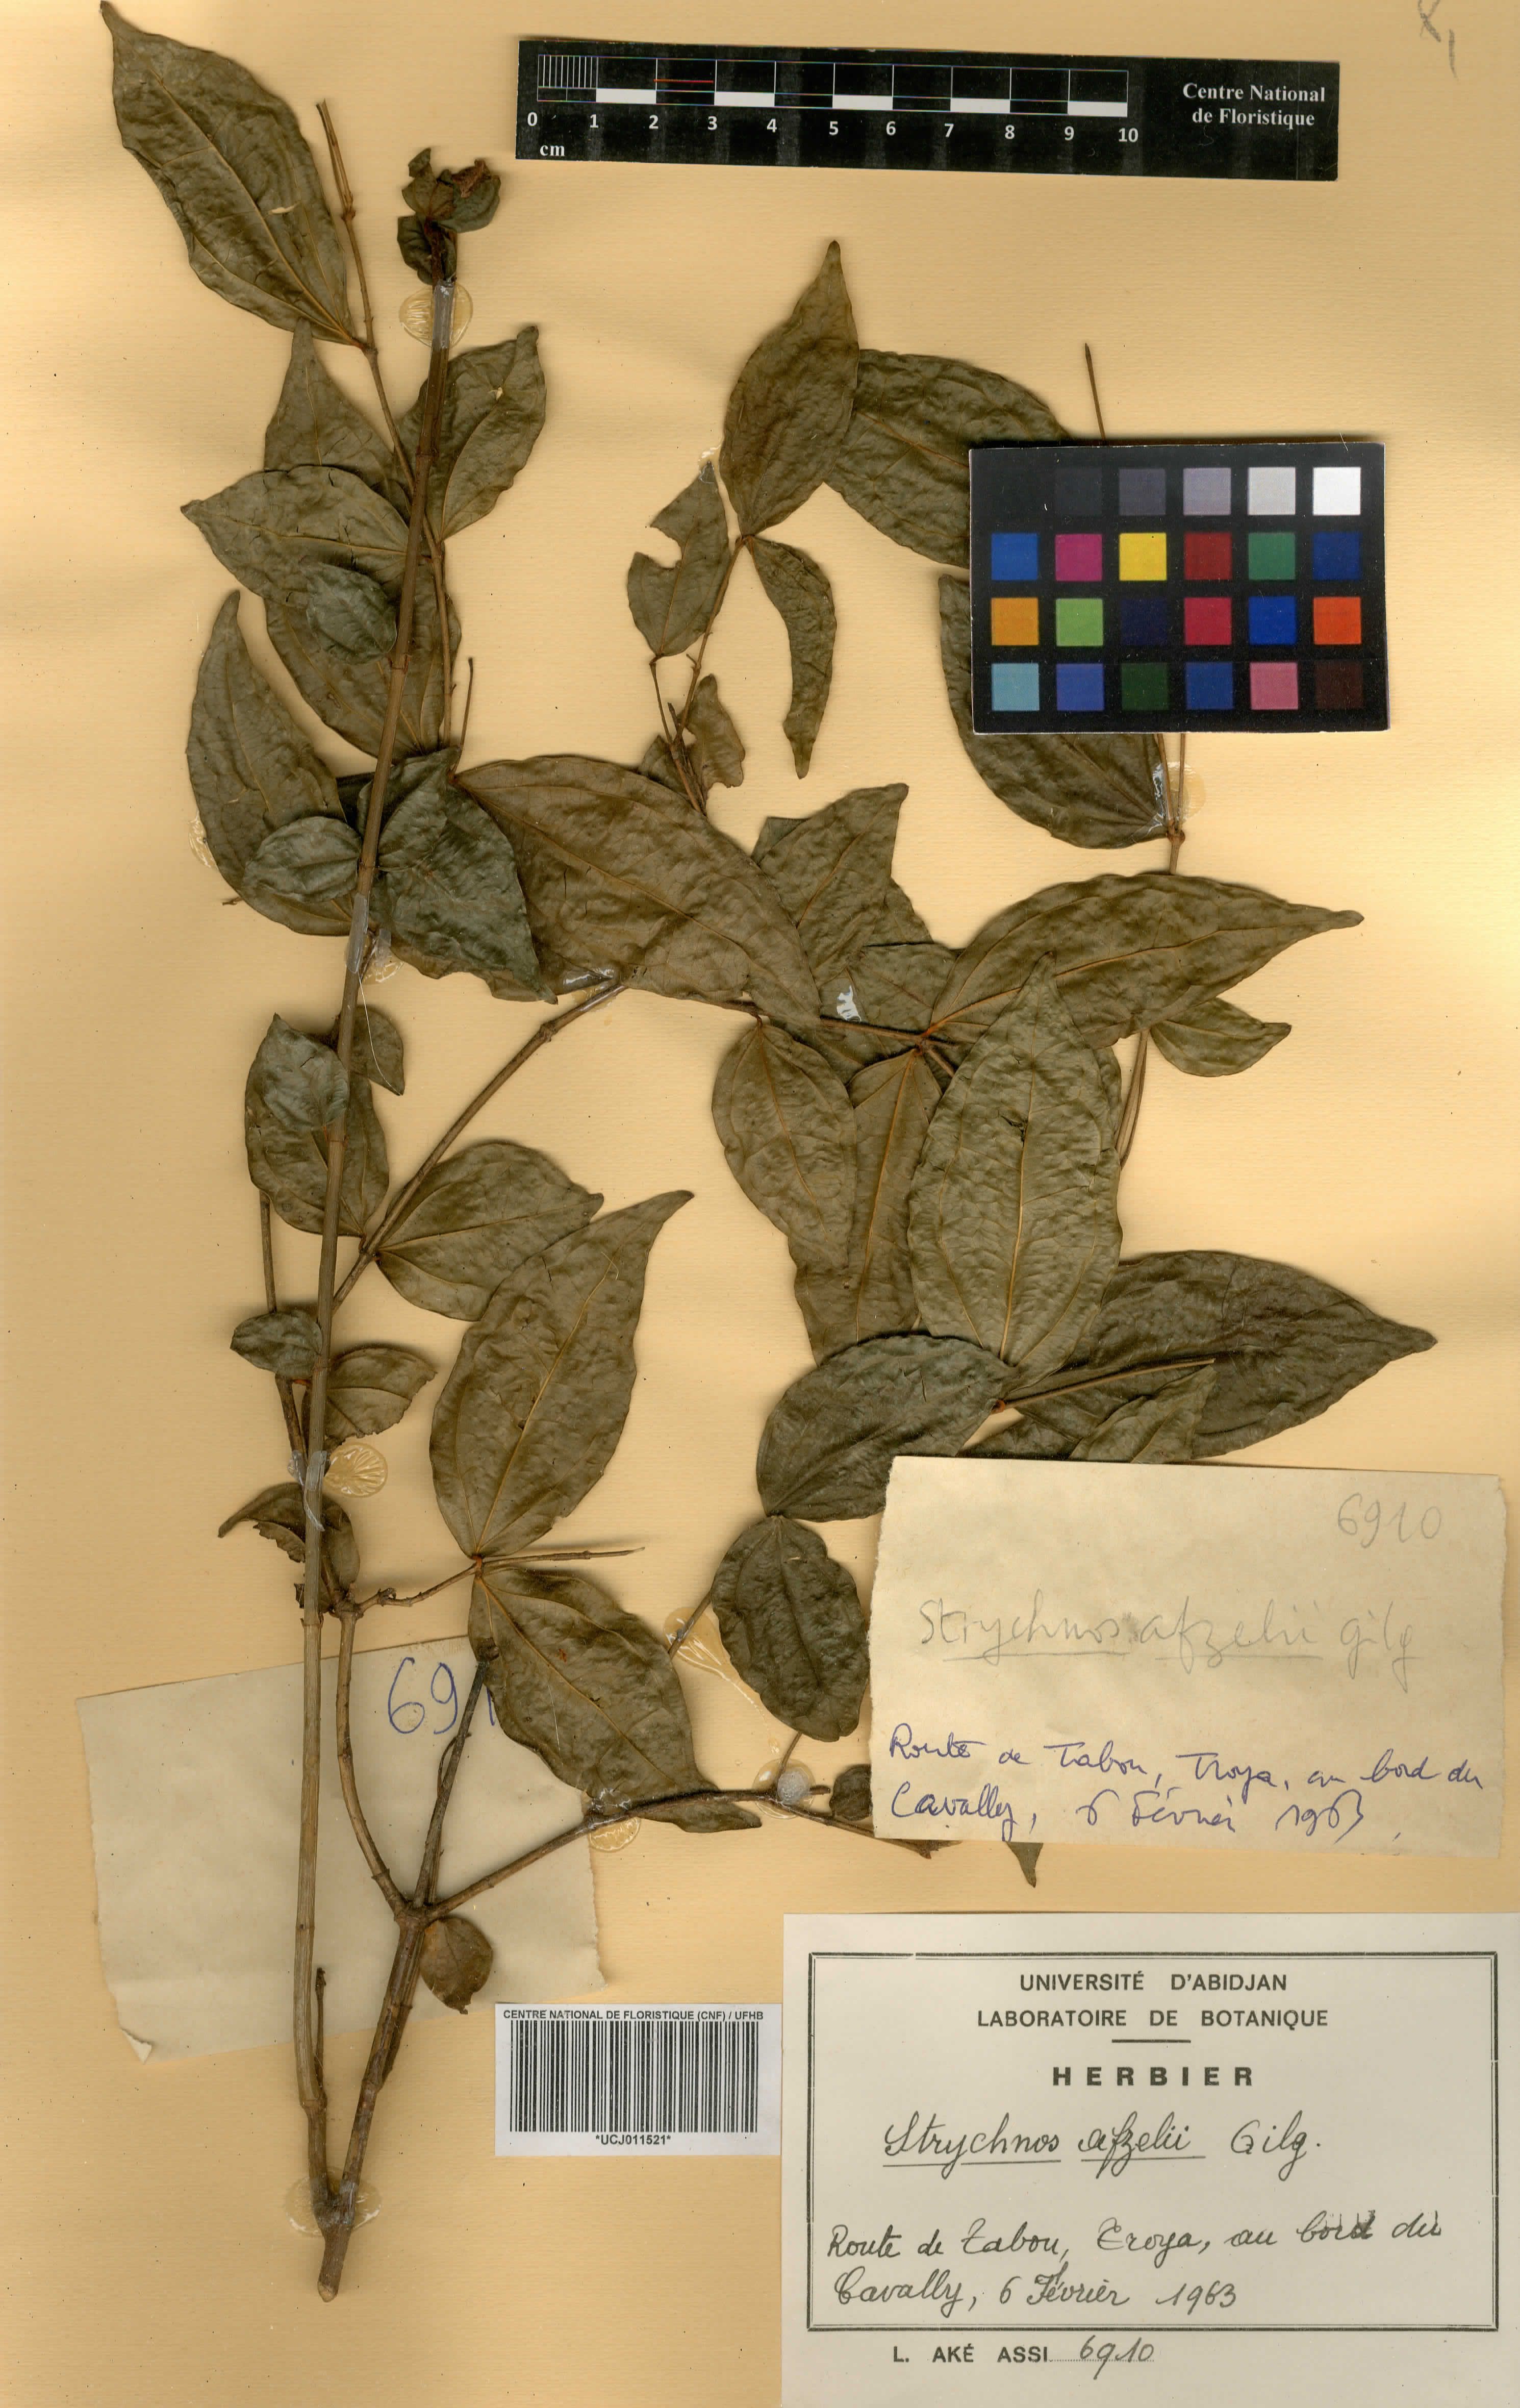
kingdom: Plantae
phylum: Tracheophyta
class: Magnoliopsida
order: Gentianales
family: Loganiaceae
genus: Strychnos
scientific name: Strychnos afzelii
